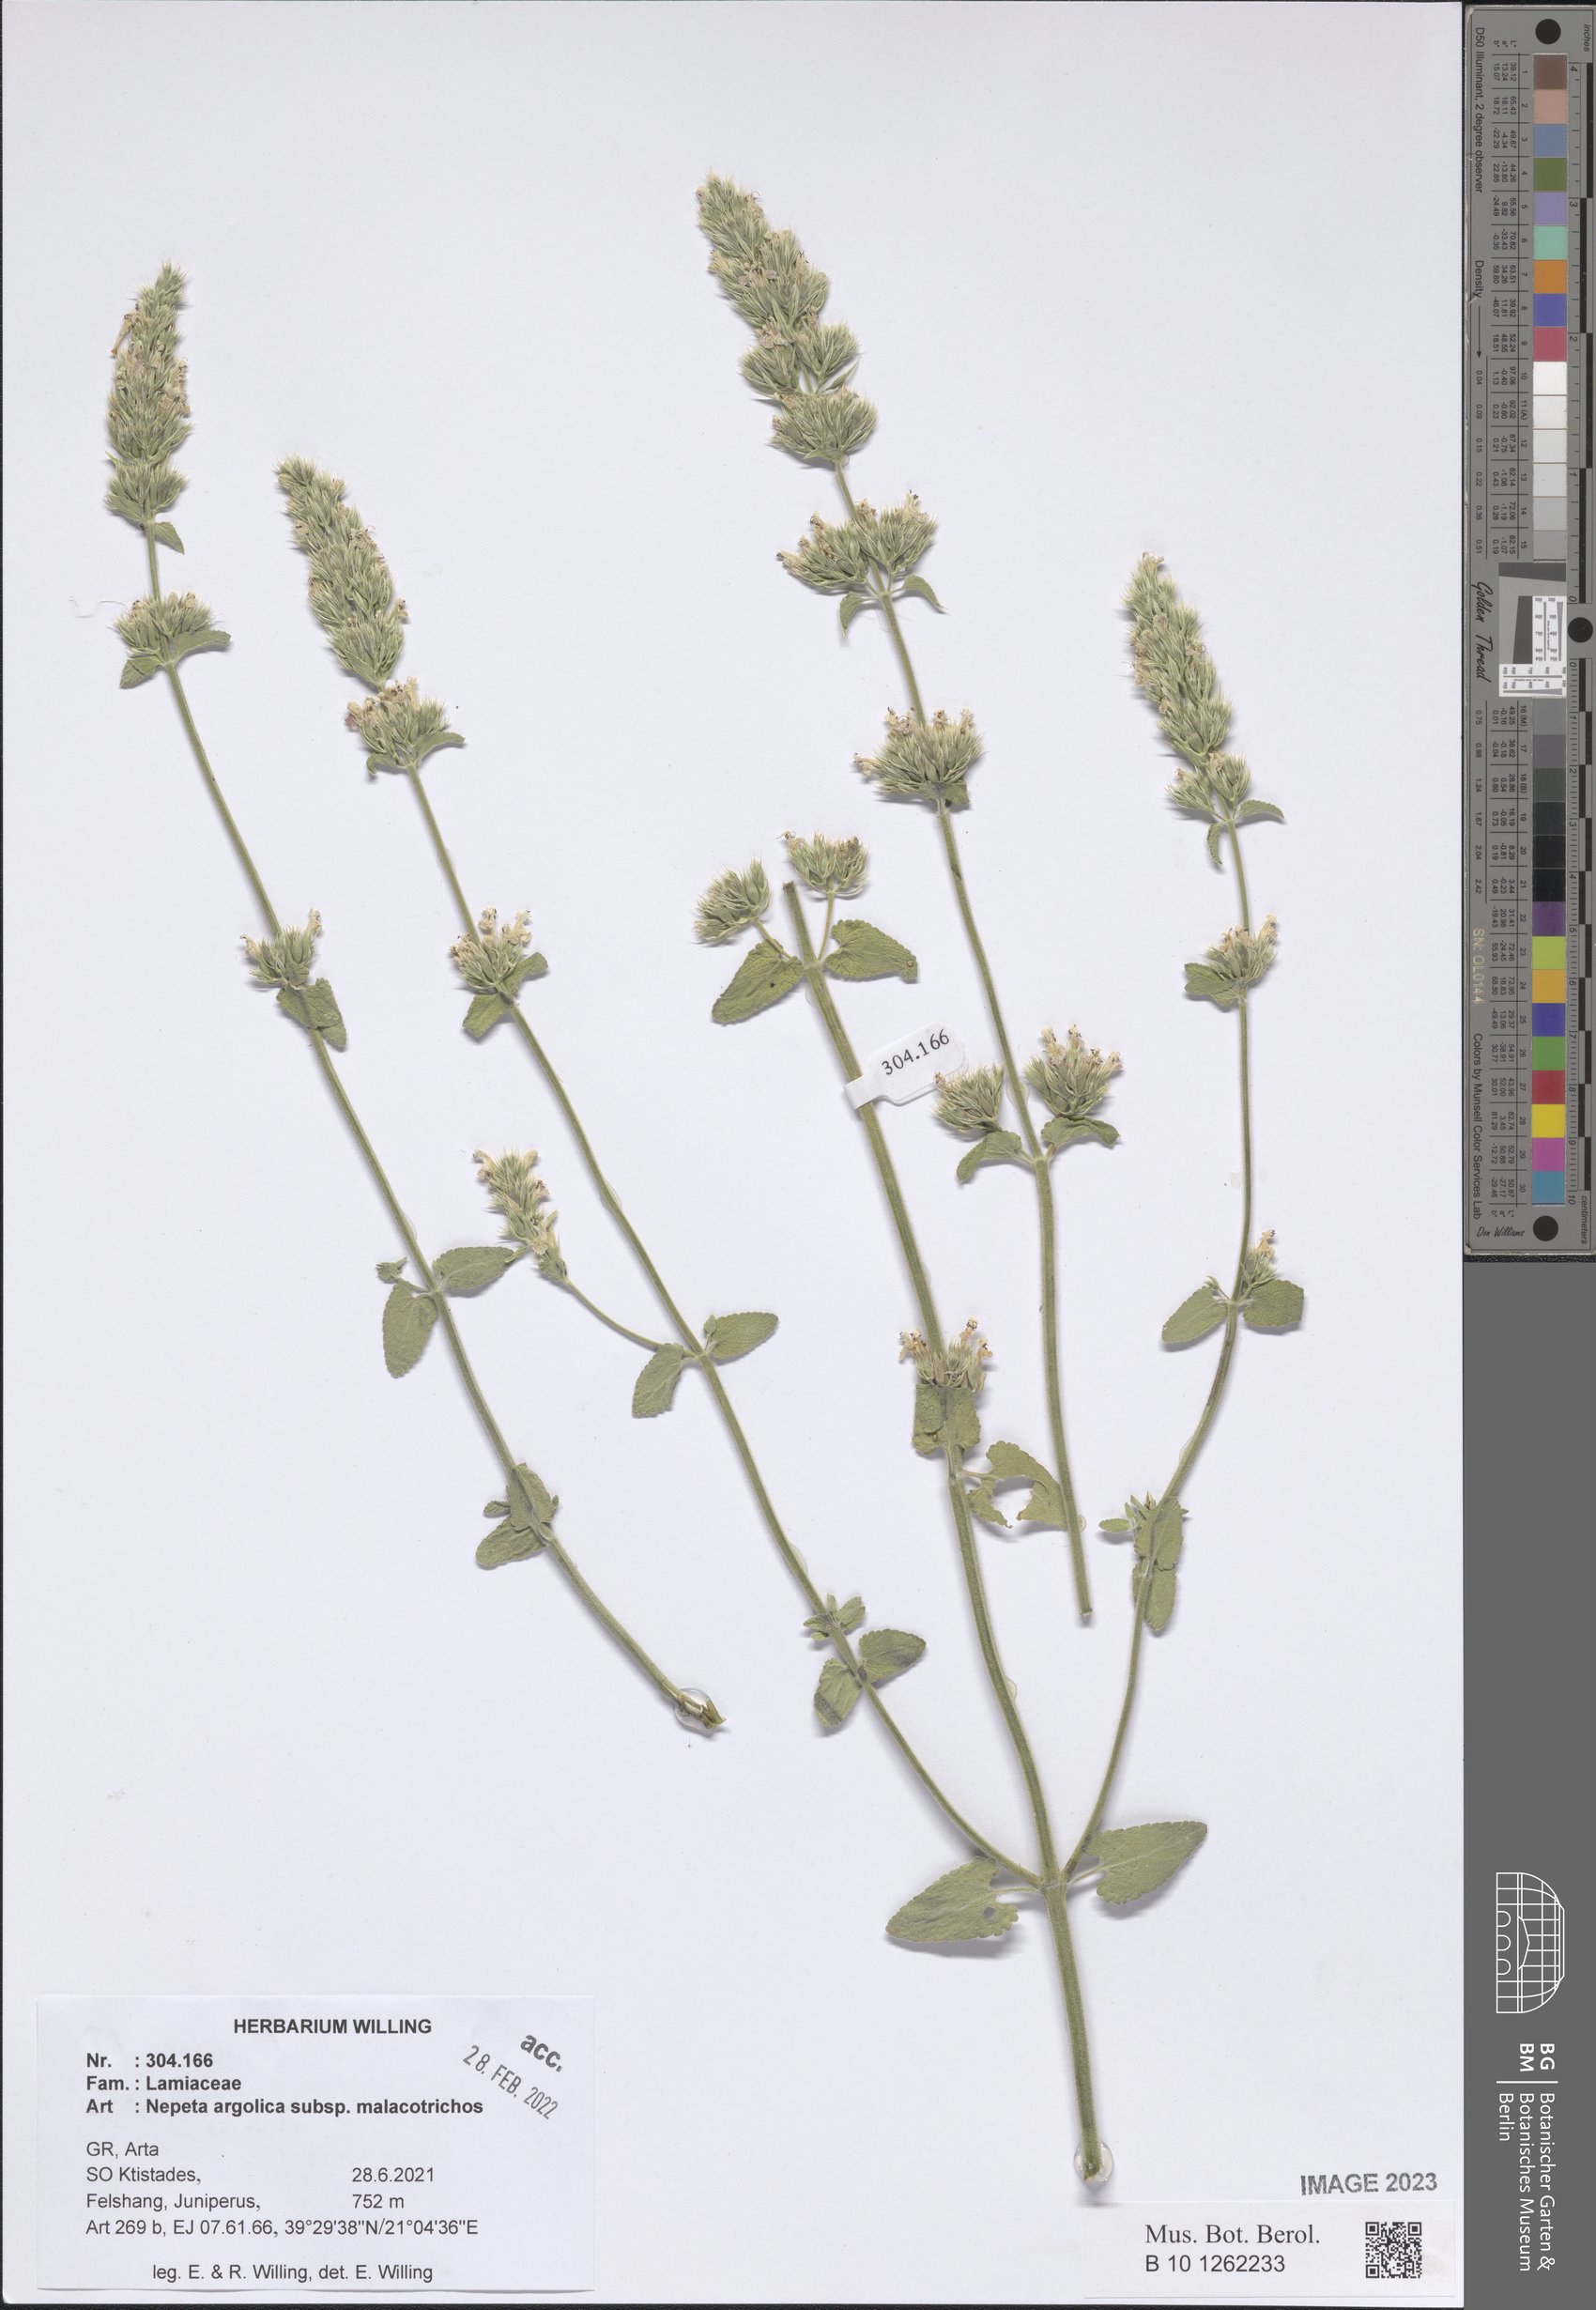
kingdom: Plantae
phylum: Tracheophyta
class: Magnoliopsida
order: Lamiales
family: Lamiaceae
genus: Nepeta
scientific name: Nepeta argolica
